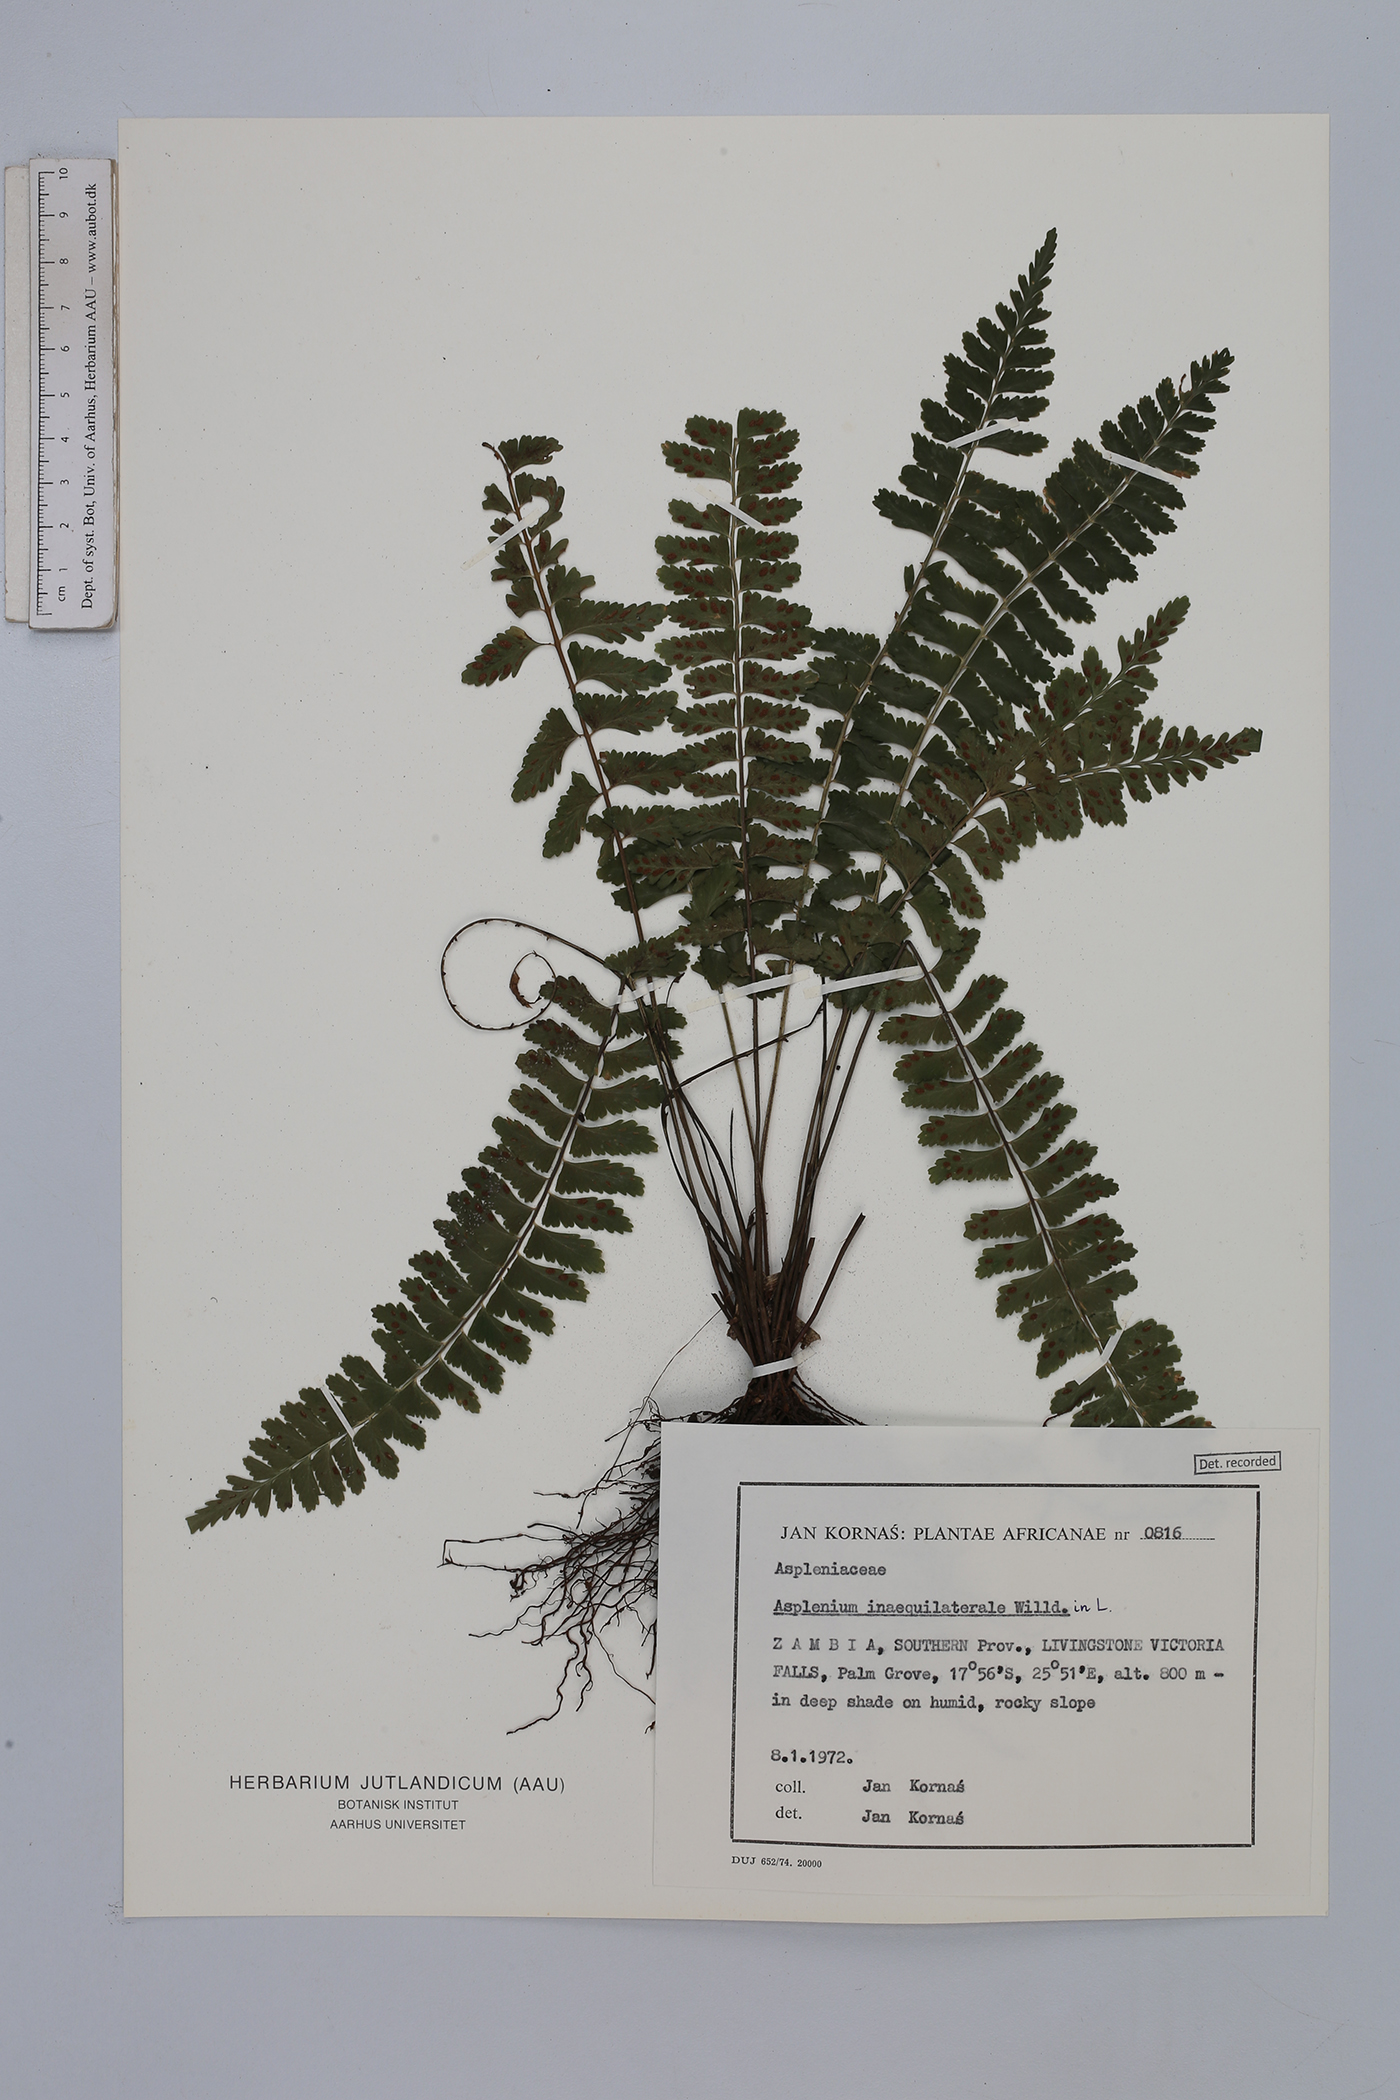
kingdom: Plantae
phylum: Tracheophyta
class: Polypodiopsida
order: Polypodiales
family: Aspleniaceae
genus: Asplenium
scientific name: Asplenium inaequilaterale
